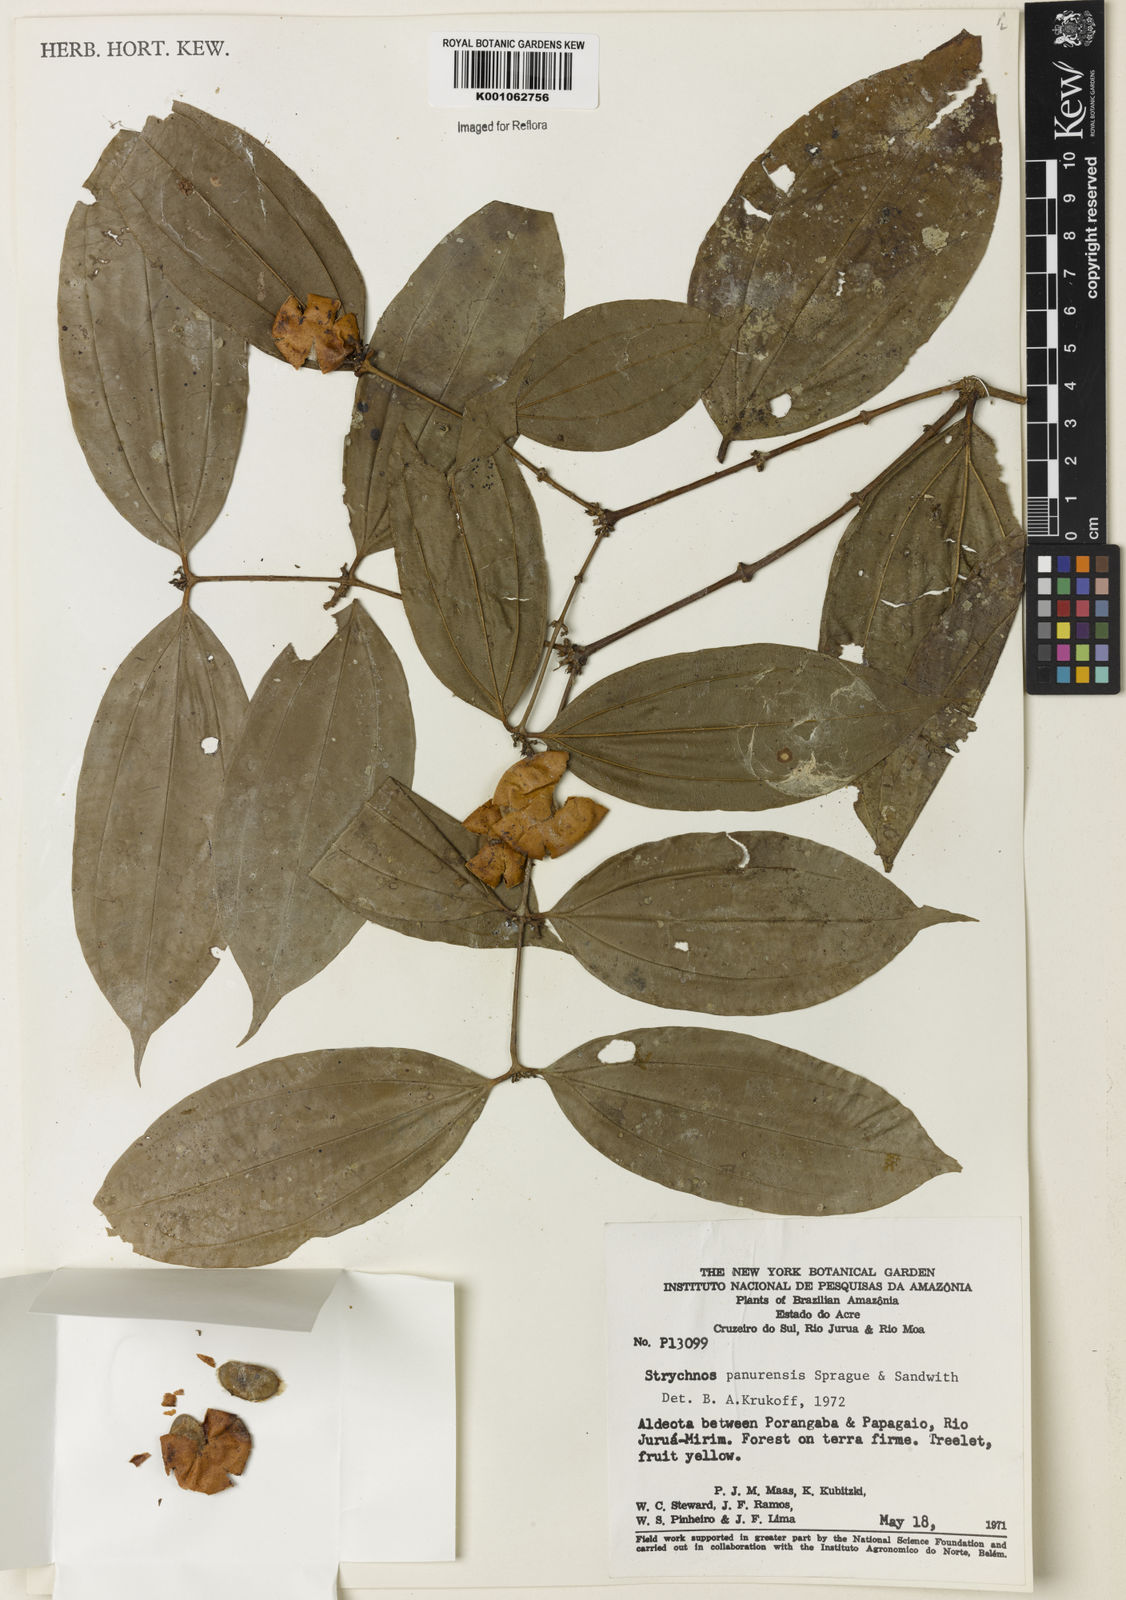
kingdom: Plantae
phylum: Tracheophyta
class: Magnoliopsida
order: Gentianales
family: Loganiaceae
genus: Strychnos
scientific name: Strychnos gubleri
